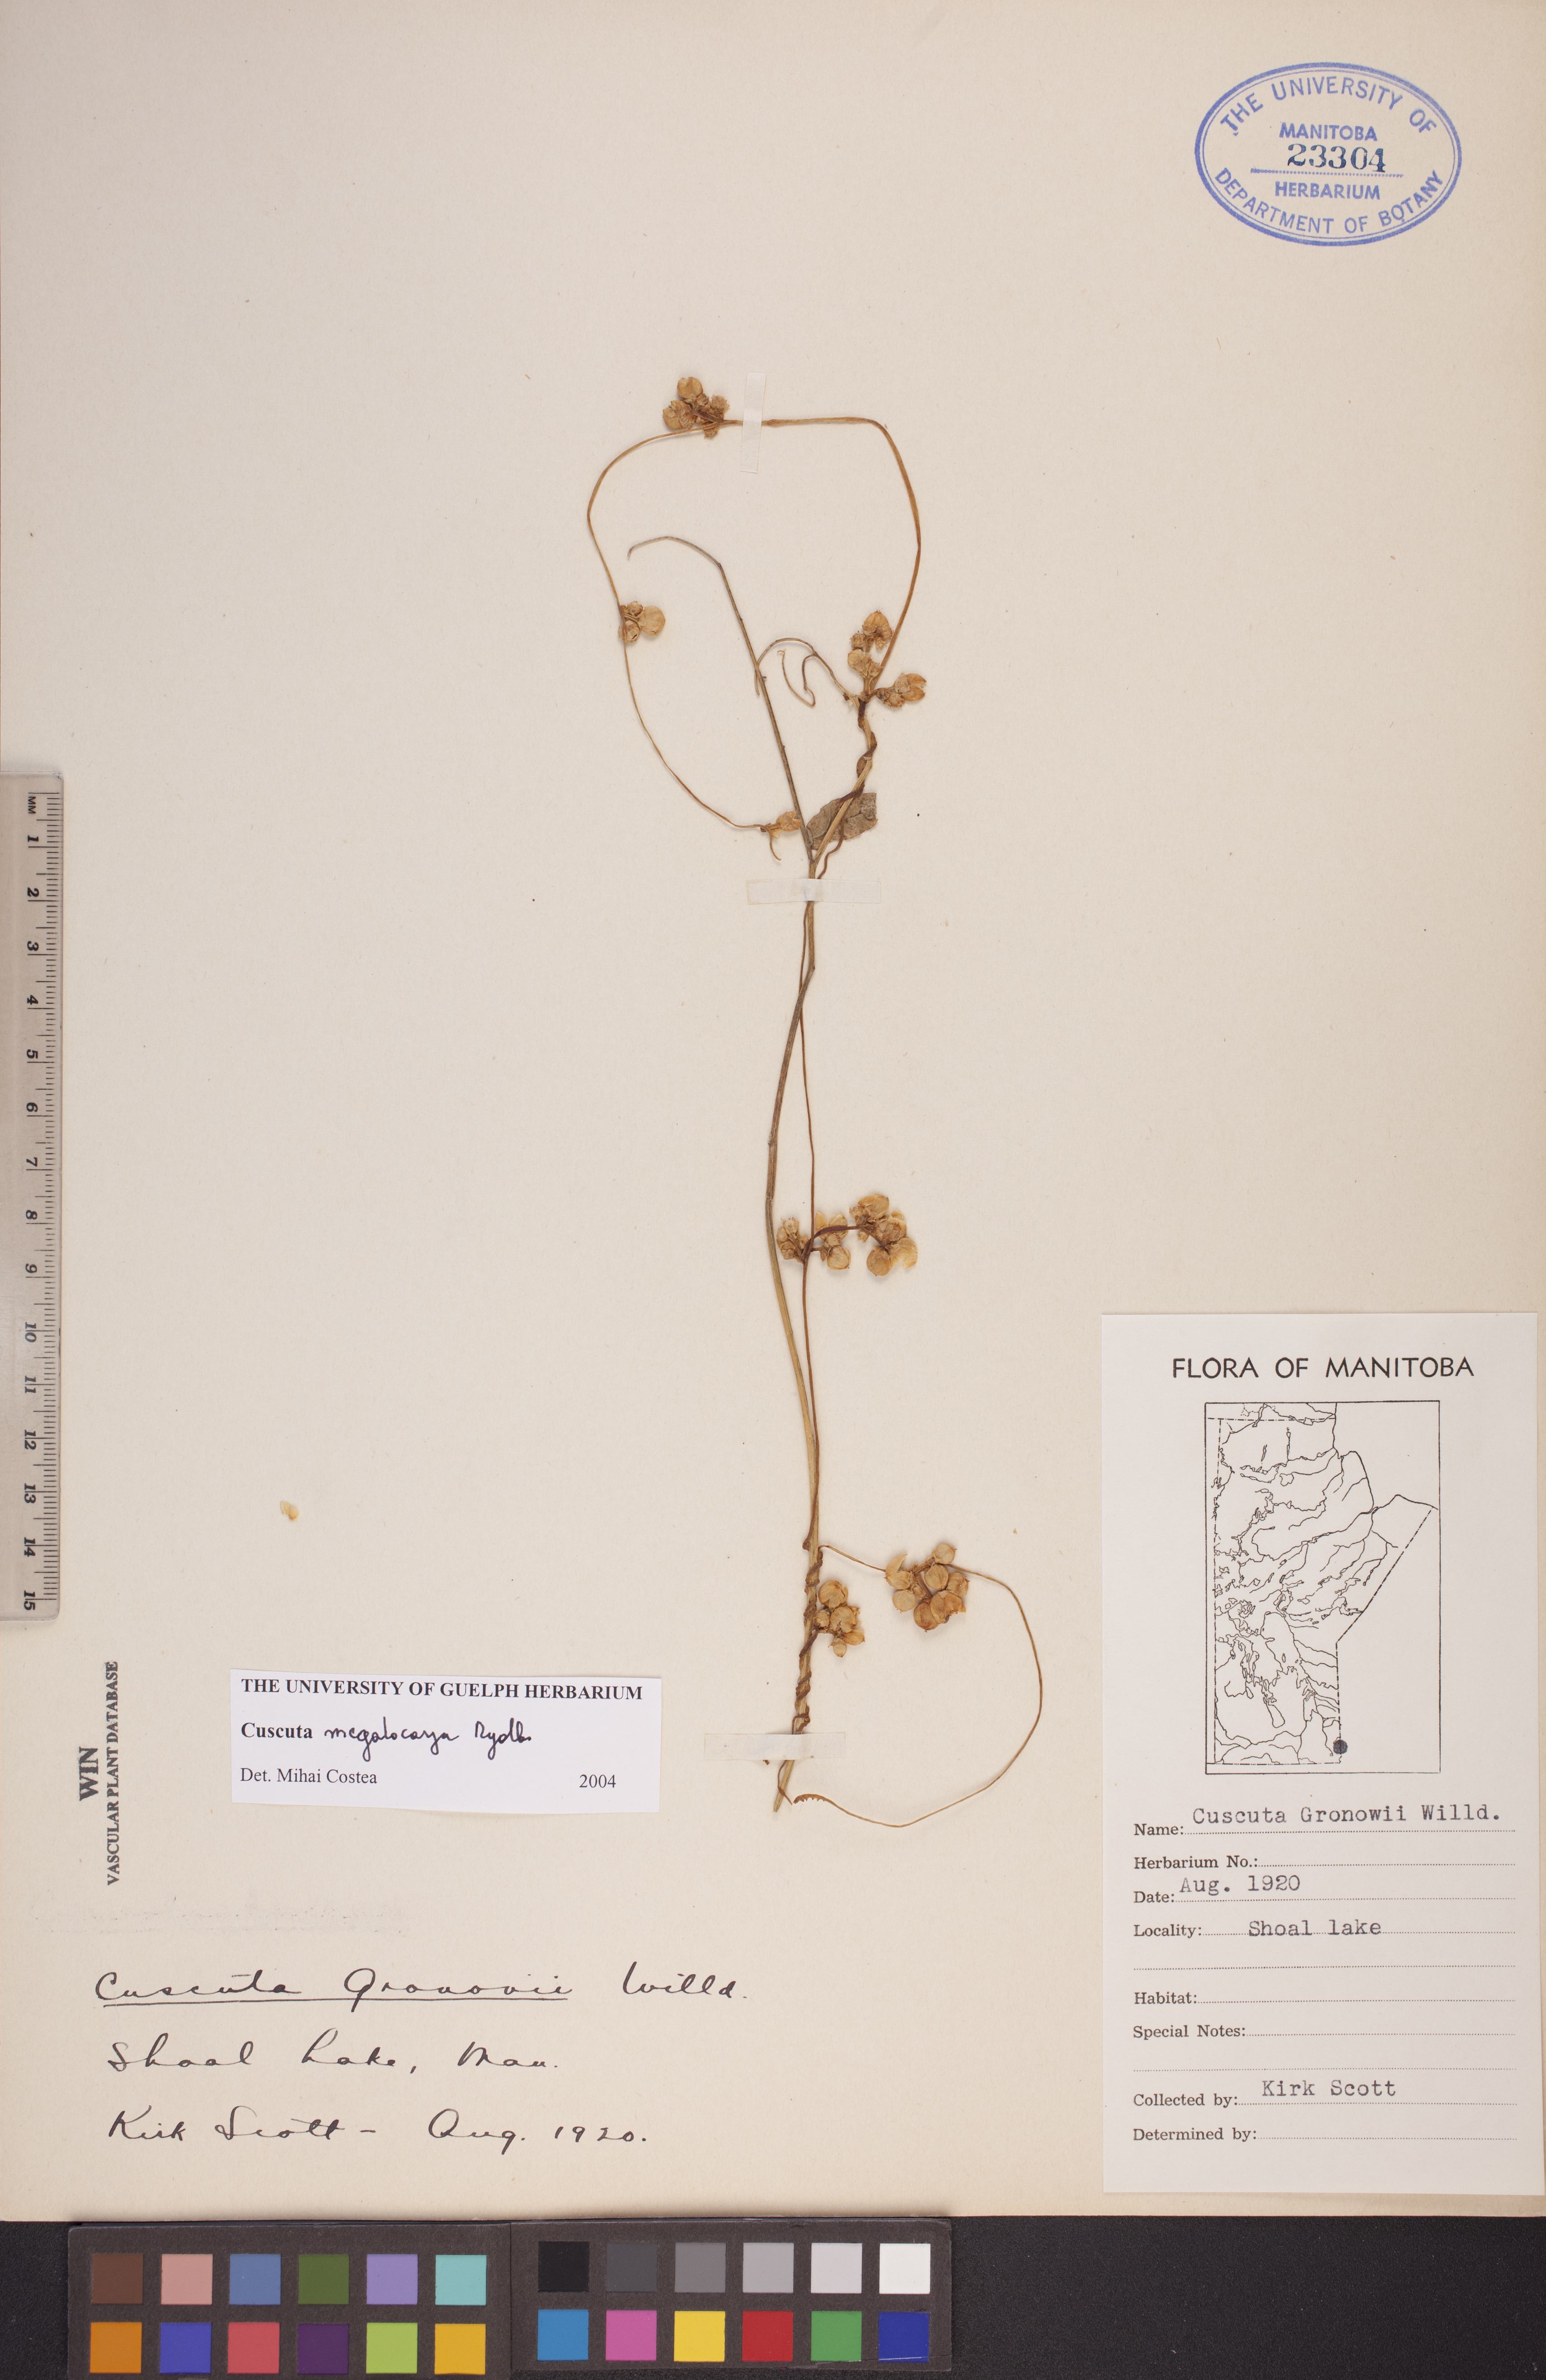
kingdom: Plantae
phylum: Tracheophyta
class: Magnoliopsida
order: Solanales
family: Convolvulaceae
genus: Cuscuta
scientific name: Cuscuta umbrosa
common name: Bigfruit dodder
